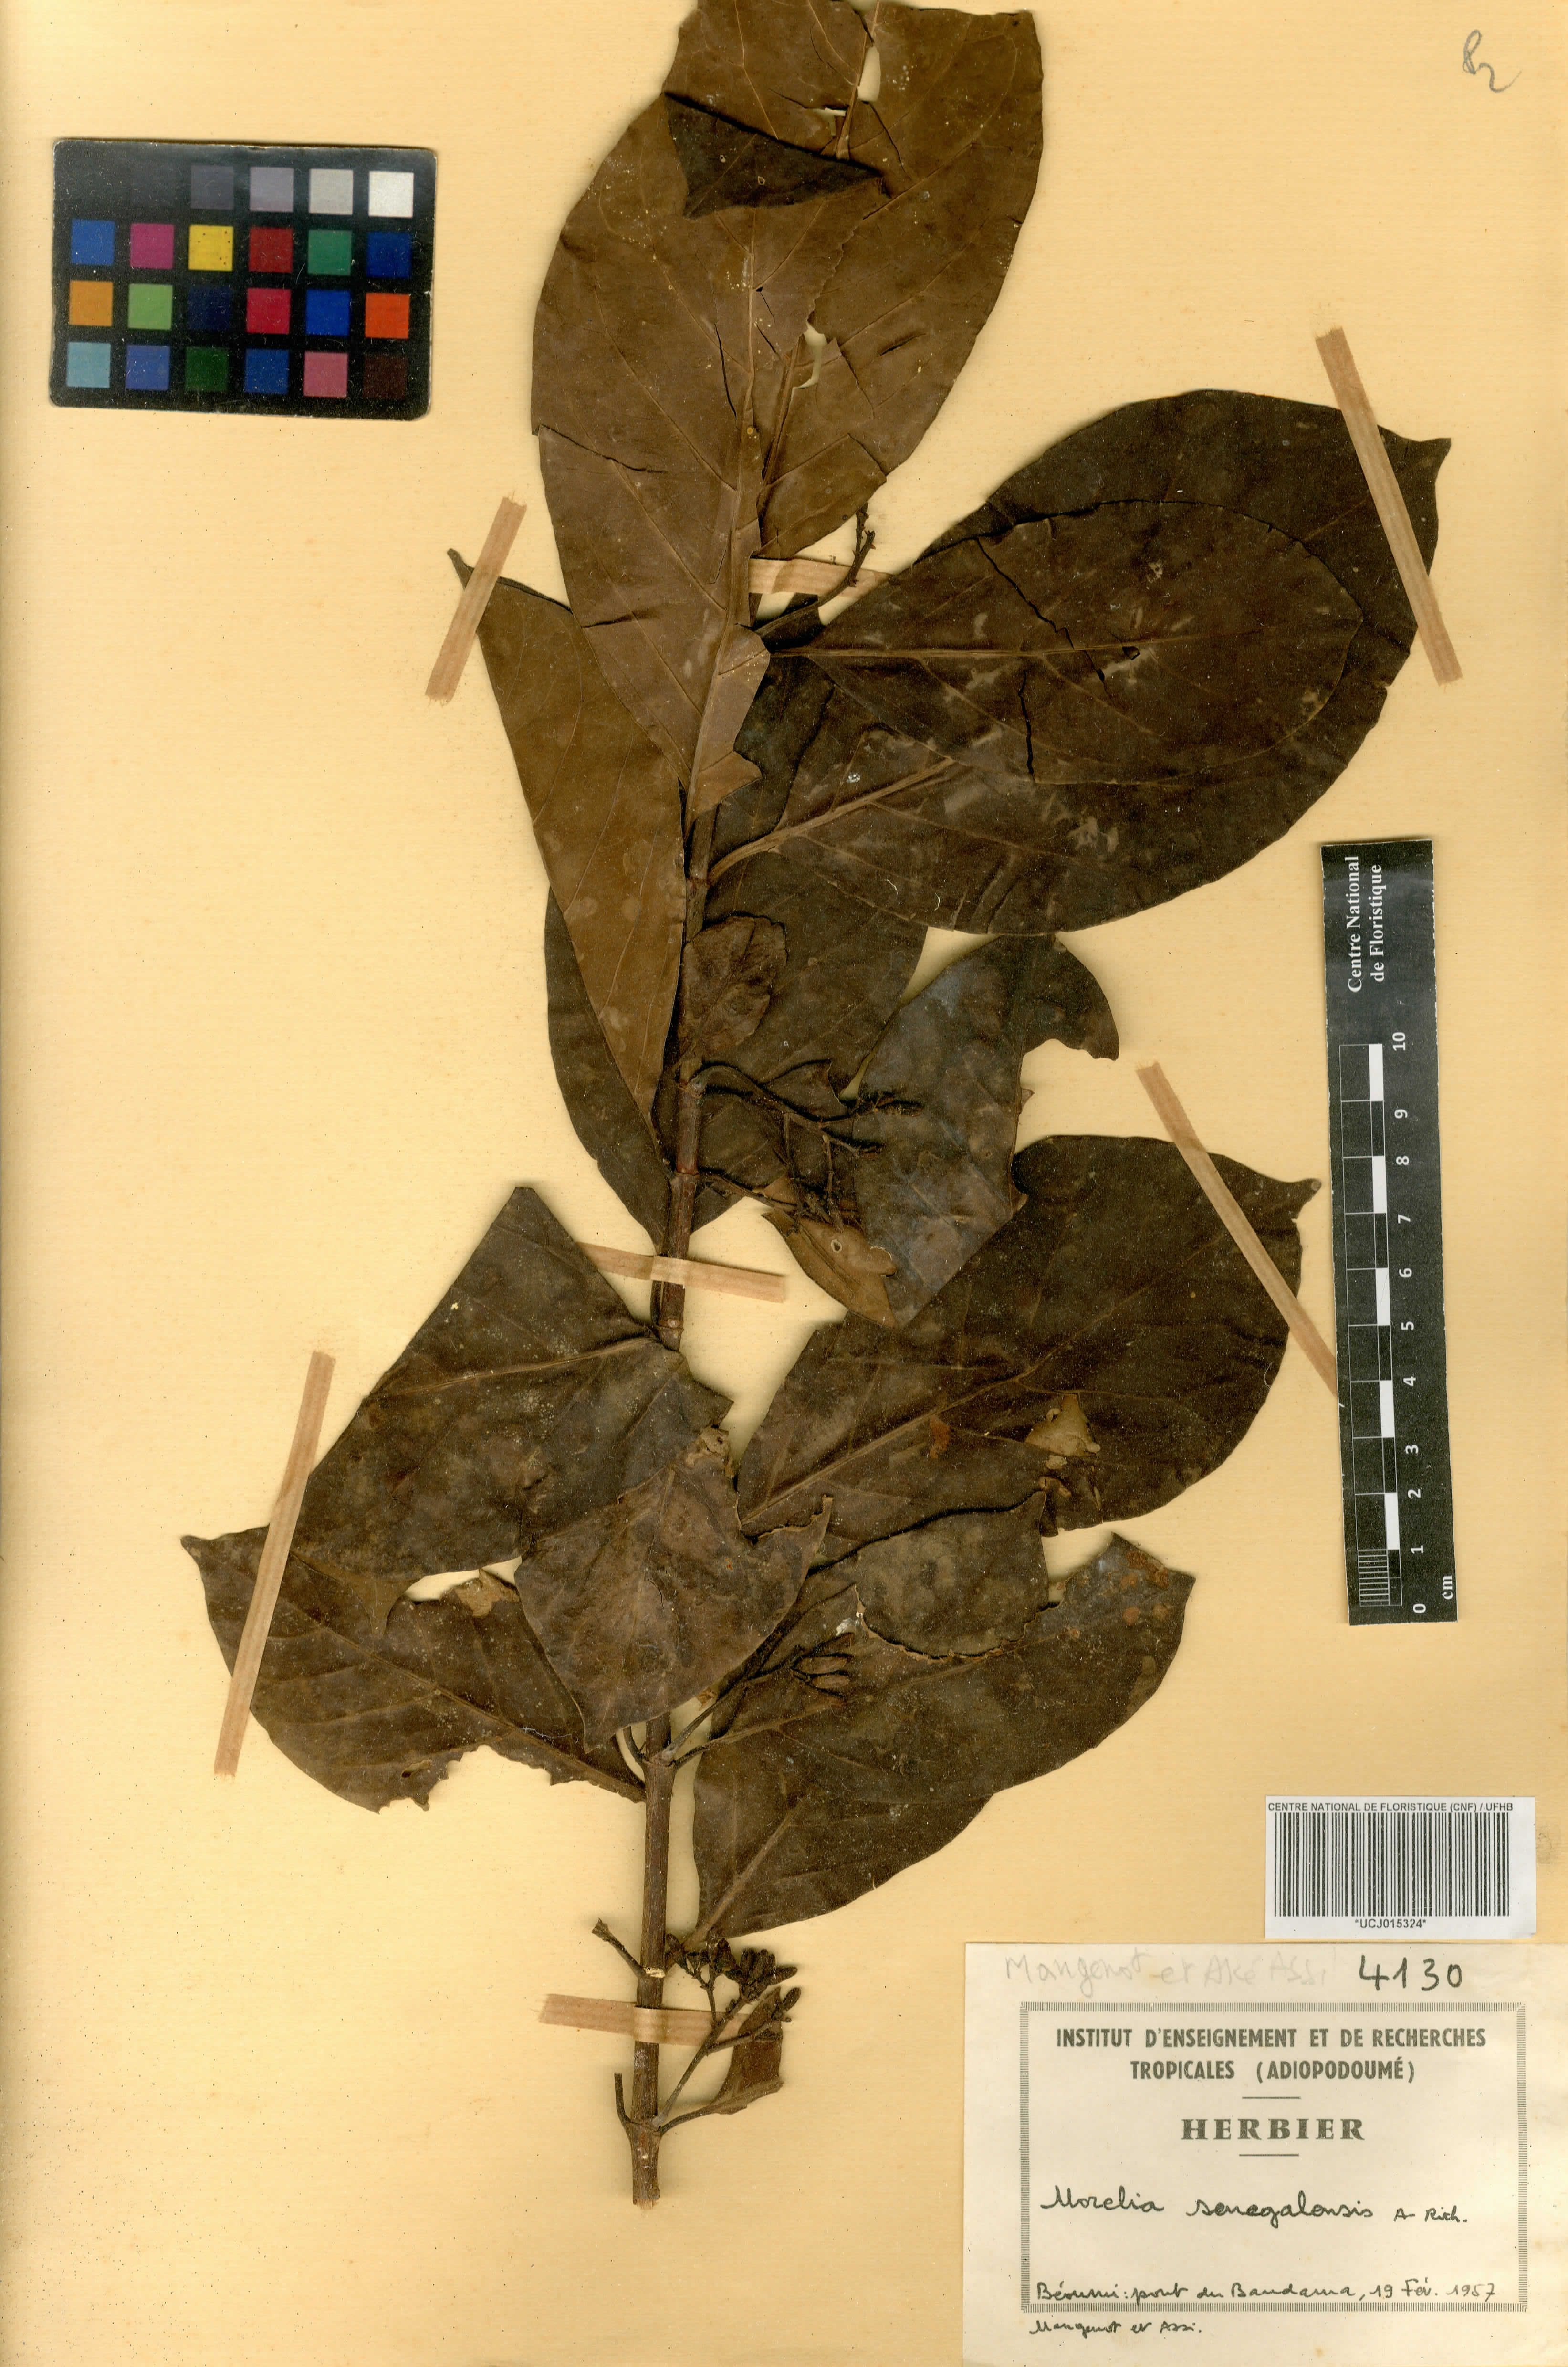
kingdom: Plantae
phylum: Tracheophyta
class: Magnoliopsida
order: Gentianales
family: Rubiaceae
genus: Morelia
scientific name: Morelia senegalensis
